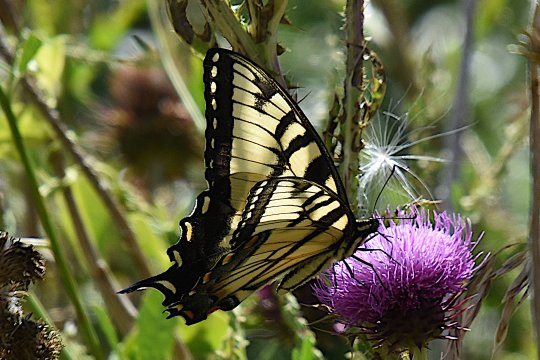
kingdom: Animalia
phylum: Arthropoda
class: Insecta
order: Lepidoptera
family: Papilionidae
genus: Pterourus
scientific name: Pterourus glaucus
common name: Eastern Tiger Swallowtail
